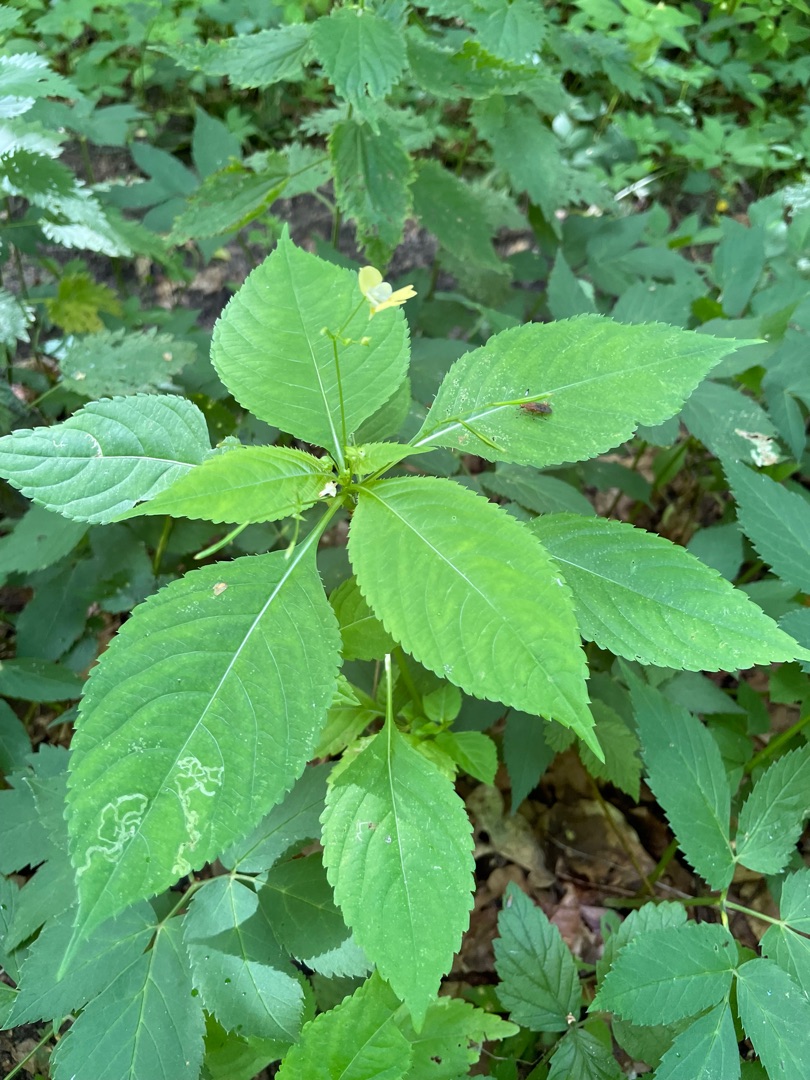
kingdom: Plantae
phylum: Tracheophyta
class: Magnoliopsida
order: Ericales
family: Balsaminaceae
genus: Impatiens
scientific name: Impatiens parviflora
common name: Småblomstret balsamin
